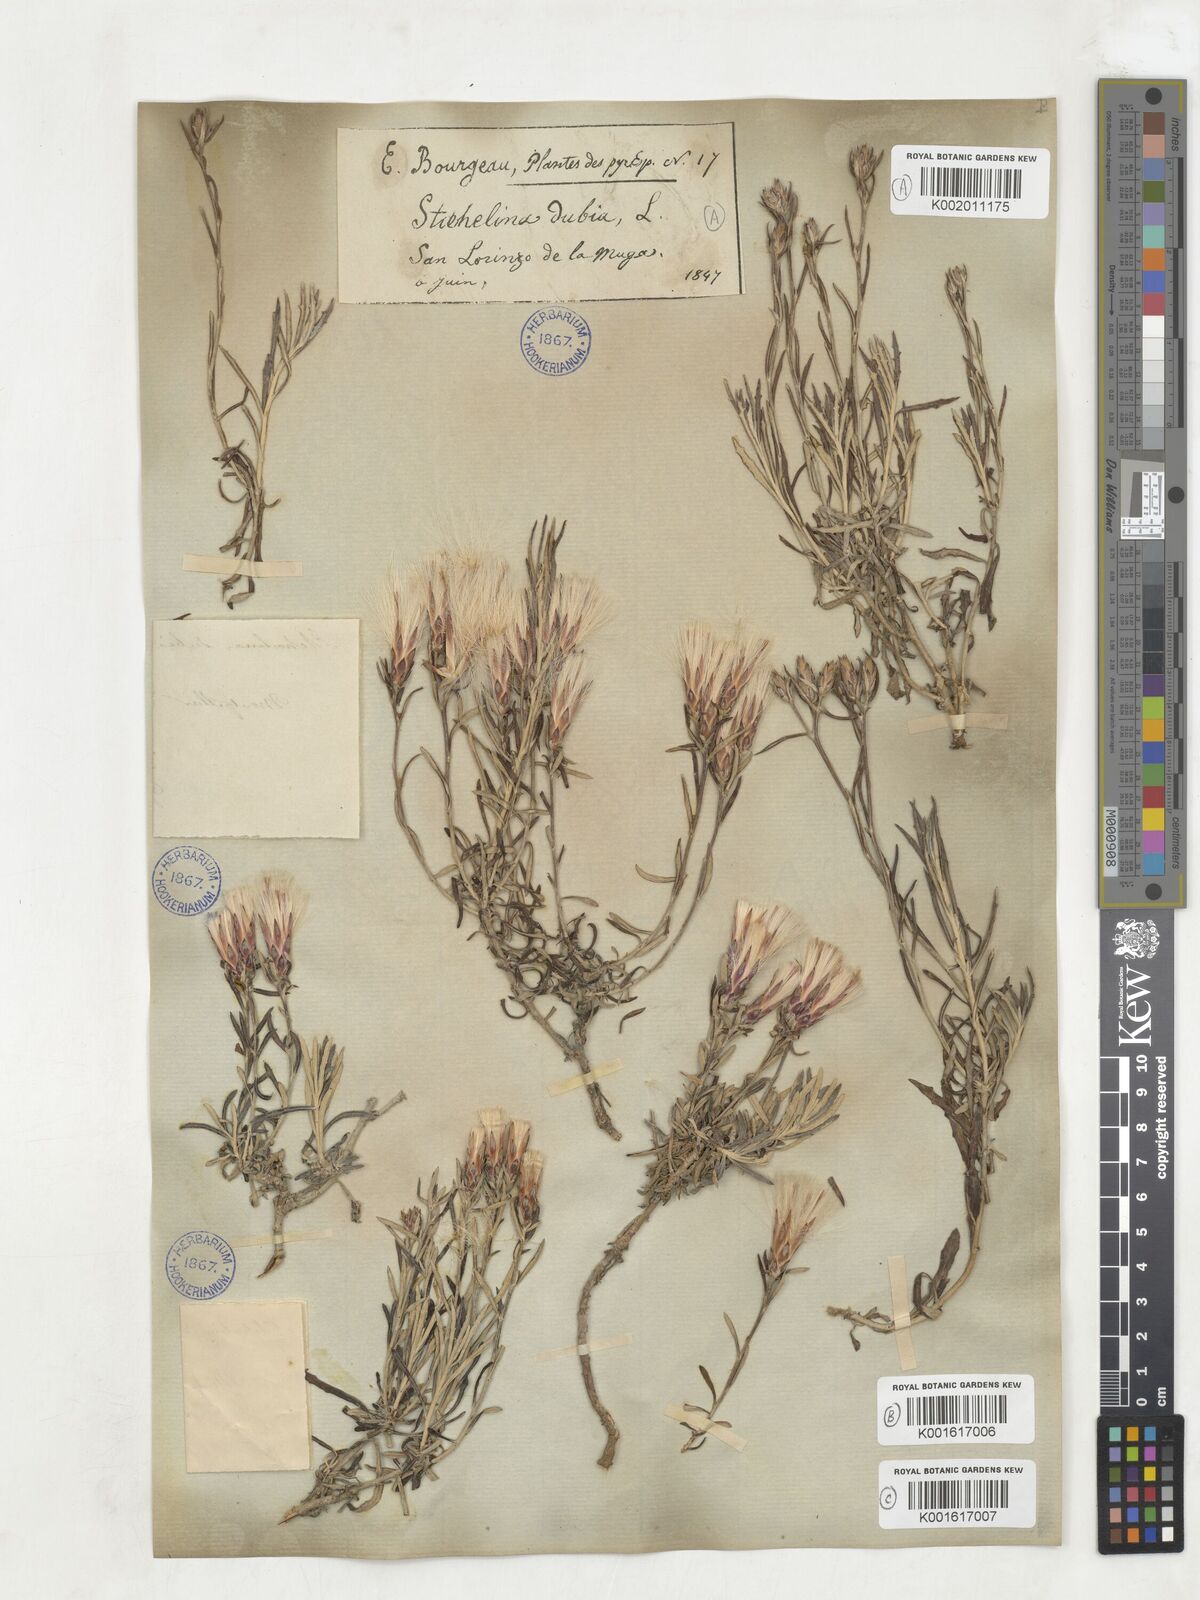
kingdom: Plantae
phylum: Tracheophyta
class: Magnoliopsida
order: Asterales
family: Asteraceae
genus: Staehelina
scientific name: Staehelina dubia
